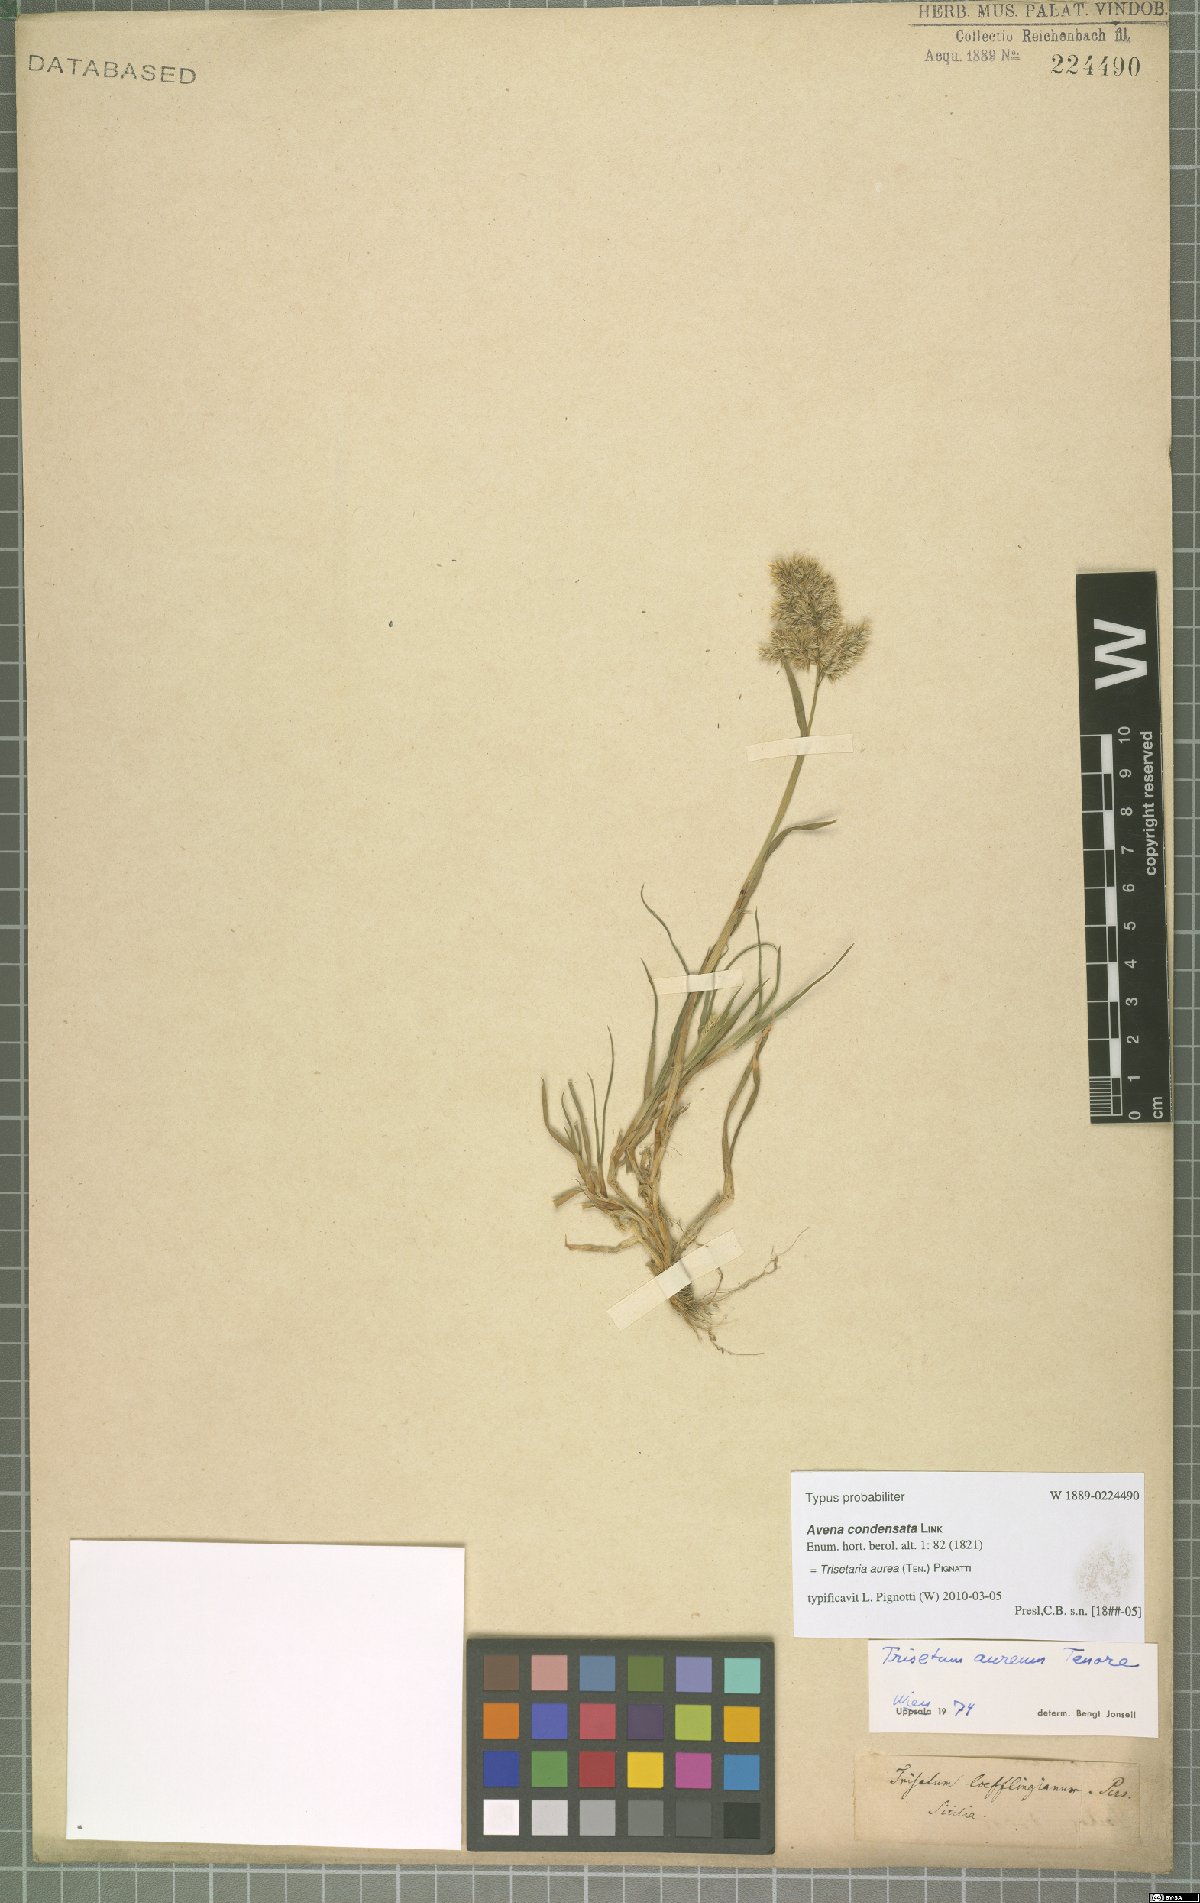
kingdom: Plantae
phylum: Tracheophyta
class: Liliopsida
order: Poales
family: Poaceae
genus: Trisetaria
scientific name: Trisetaria aurea
